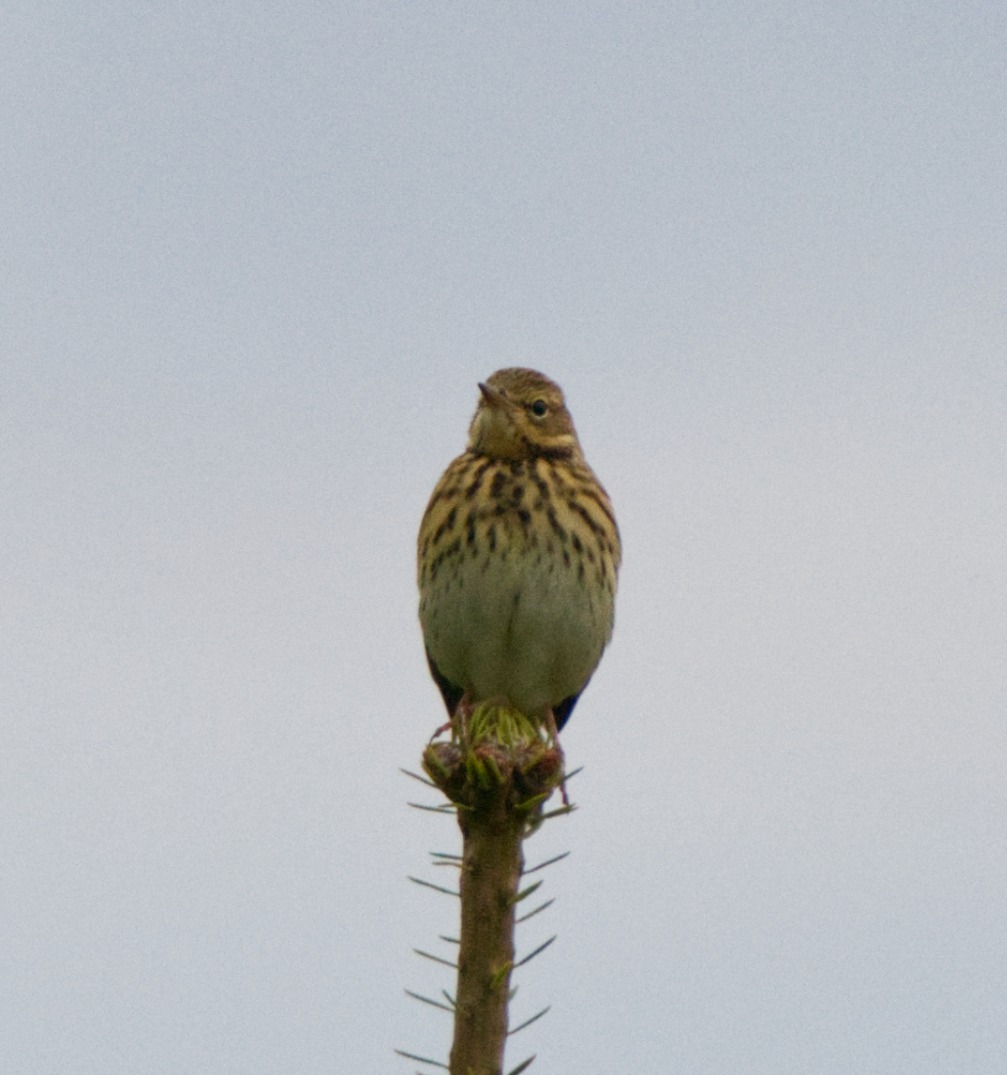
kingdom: Animalia
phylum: Chordata
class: Aves
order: Passeriformes
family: Motacillidae
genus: Anthus
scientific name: Anthus trivialis
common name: Skovpiber
